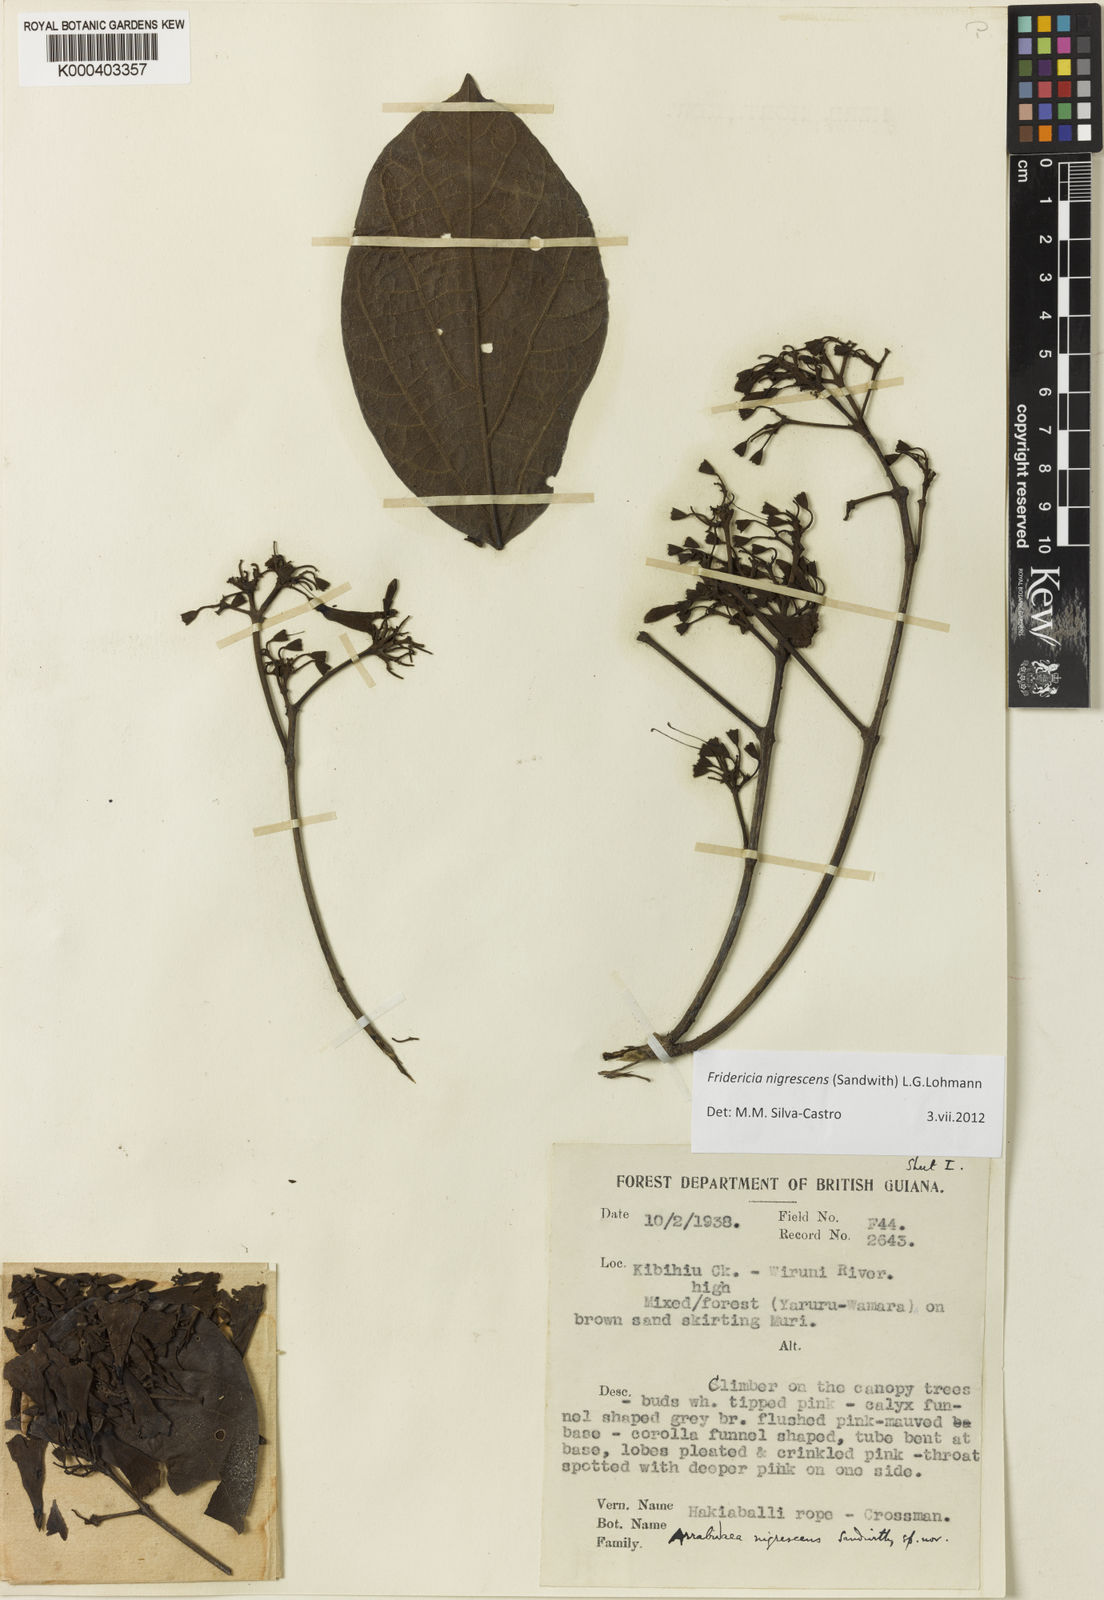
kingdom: Plantae
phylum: Tracheophyta
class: Magnoliopsida
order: Lamiales
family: Bignoniaceae
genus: Fridericia
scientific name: Fridericia nigrescens
